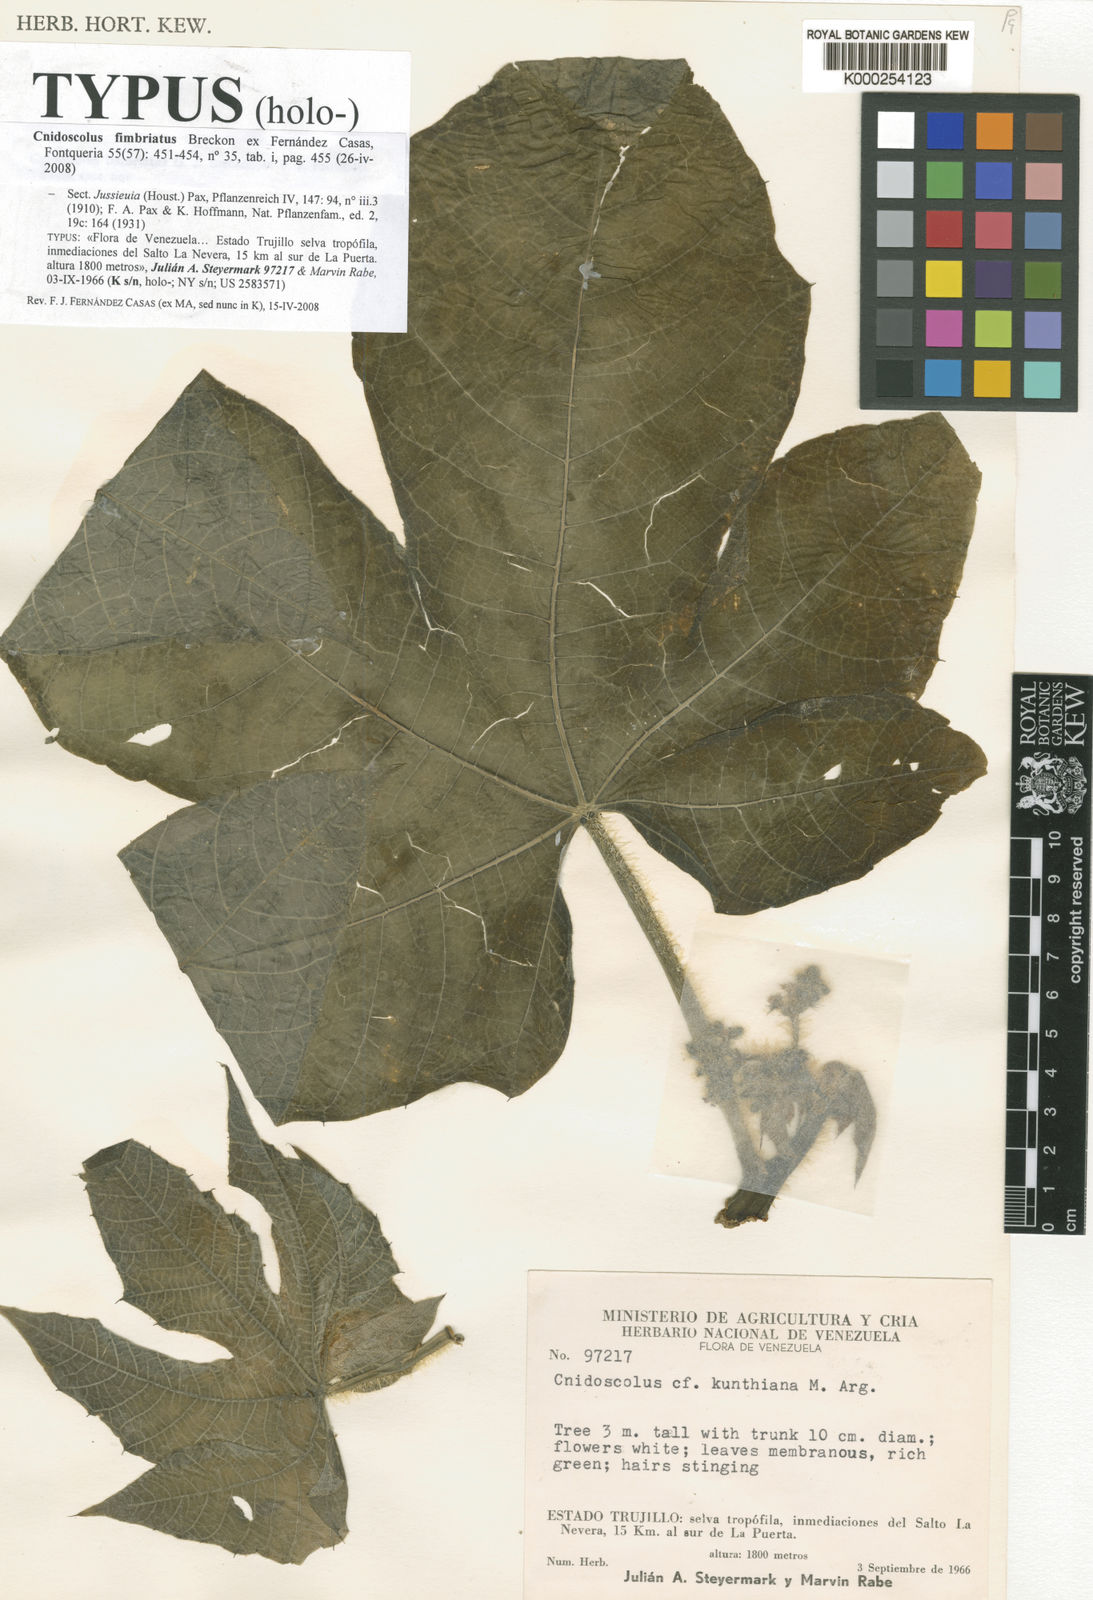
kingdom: Plantae
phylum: Tracheophyta
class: Magnoliopsida
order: Malpighiales
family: Euphorbiaceae
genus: Cnidoscolus
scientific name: Cnidoscolus fimbriatus
